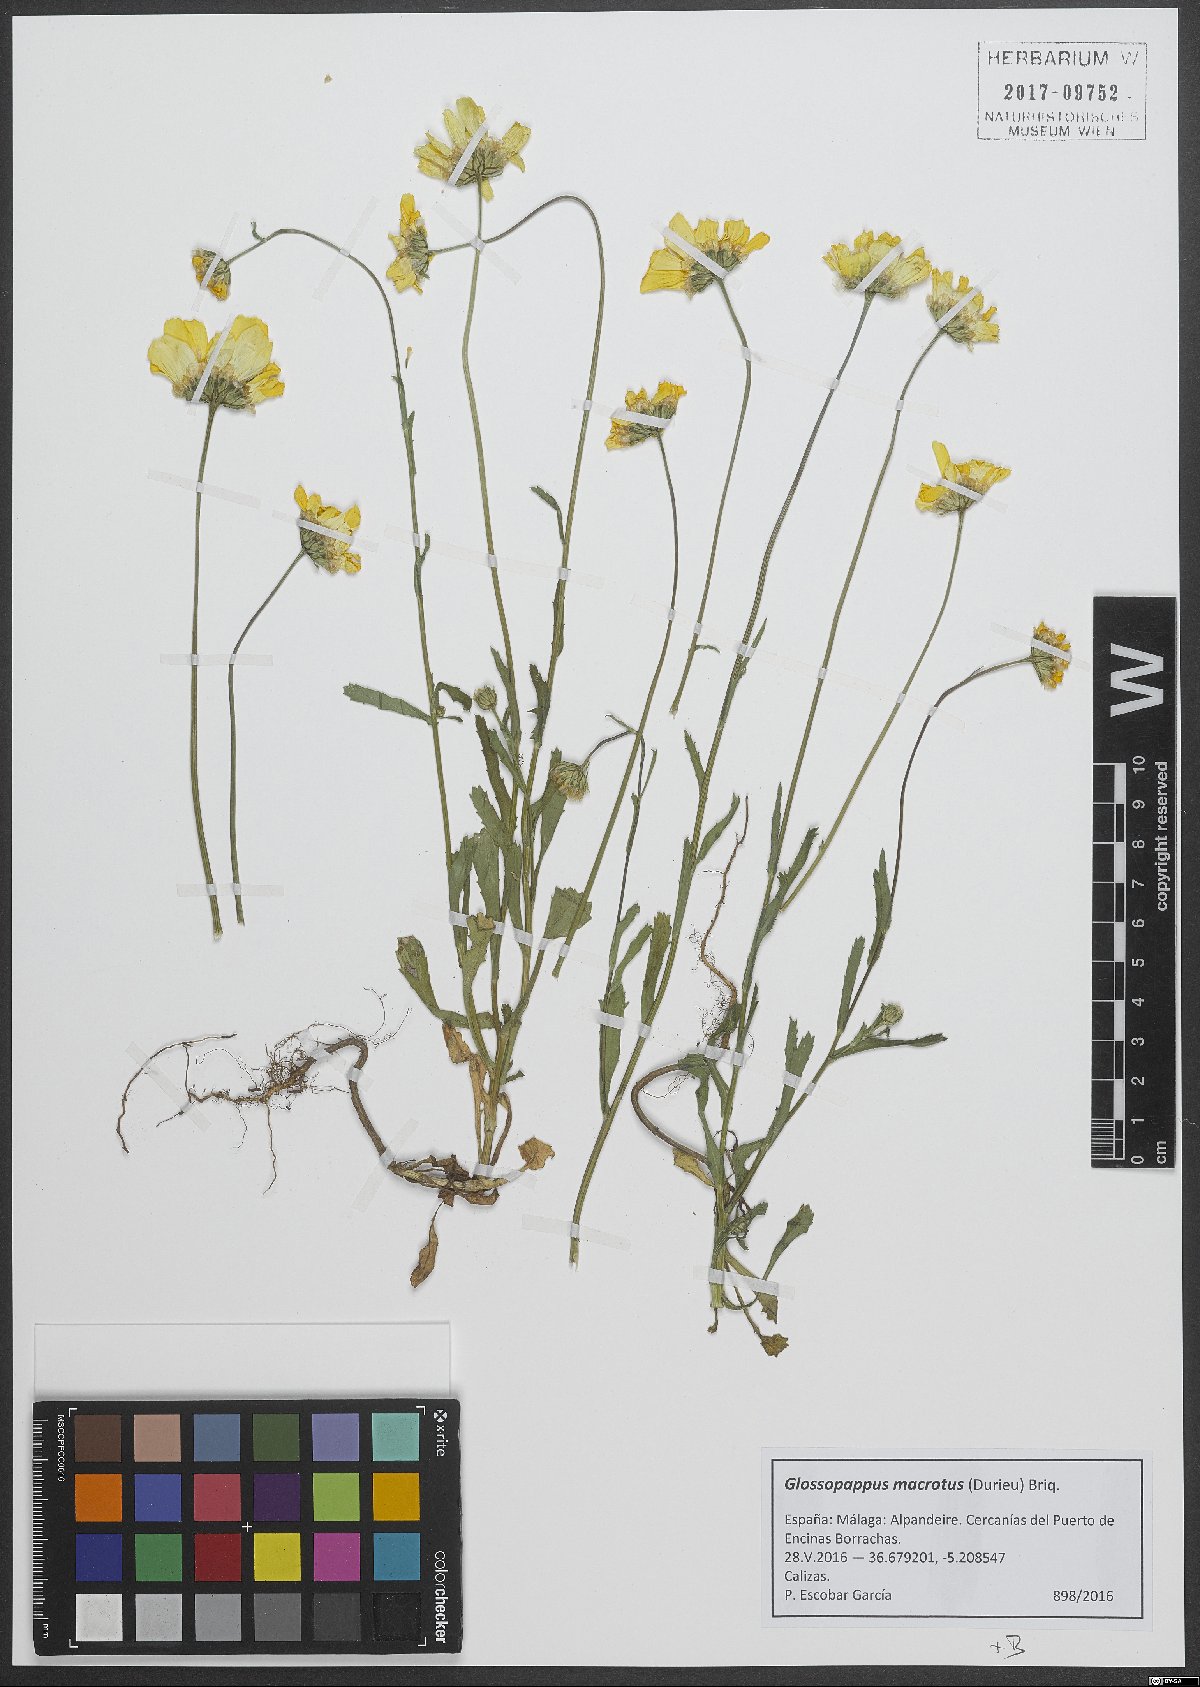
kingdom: Plantae
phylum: Tracheophyta
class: Magnoliopsida
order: Asterales
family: Asteraceae
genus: Glossopappus
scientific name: Glossopappus macrotus
